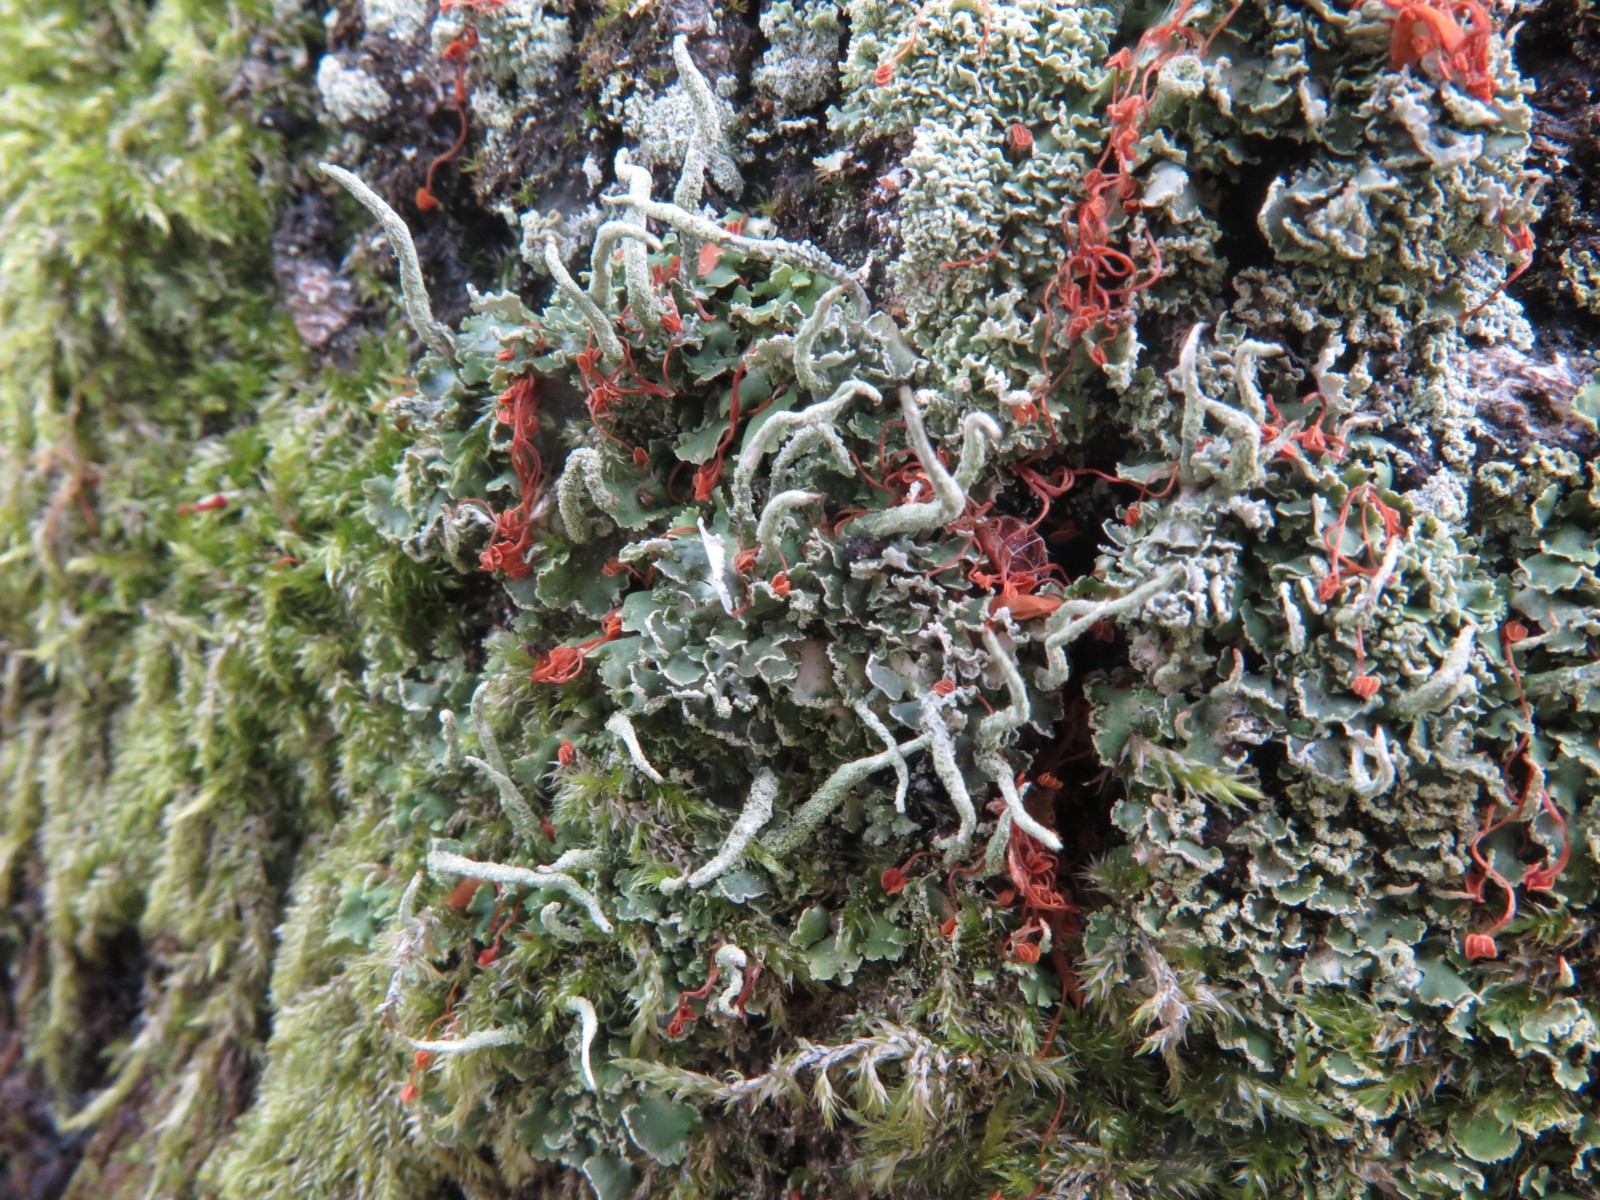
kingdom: Fungi
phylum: Ascomycota
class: Lecanoromycetes
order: Lecanorales
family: Cladoniaceae
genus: Cladonia
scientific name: Cladonia coniocraea
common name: træfods-bægerlav
